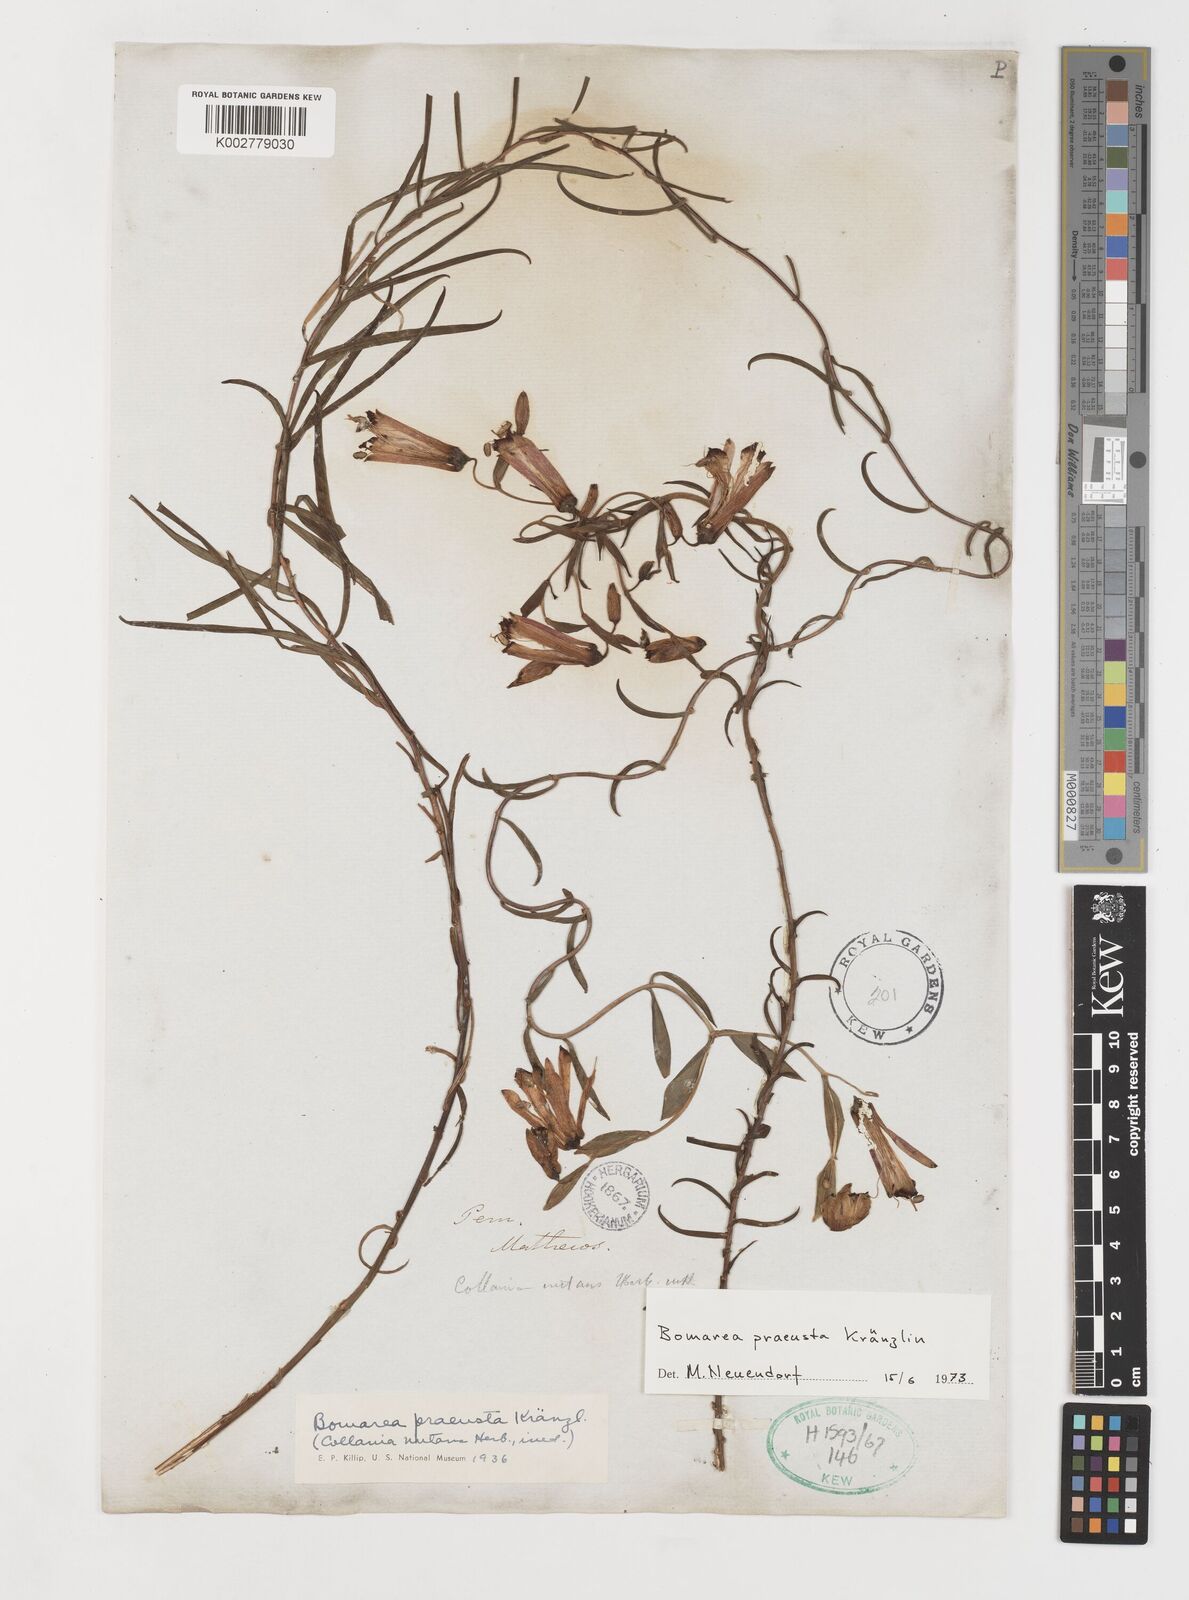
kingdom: Plantae
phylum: Tracheophyta
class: Liliopsida
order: Liliales
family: Alstroemeriaceae
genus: Bomarea
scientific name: Bomarea parvifolia
